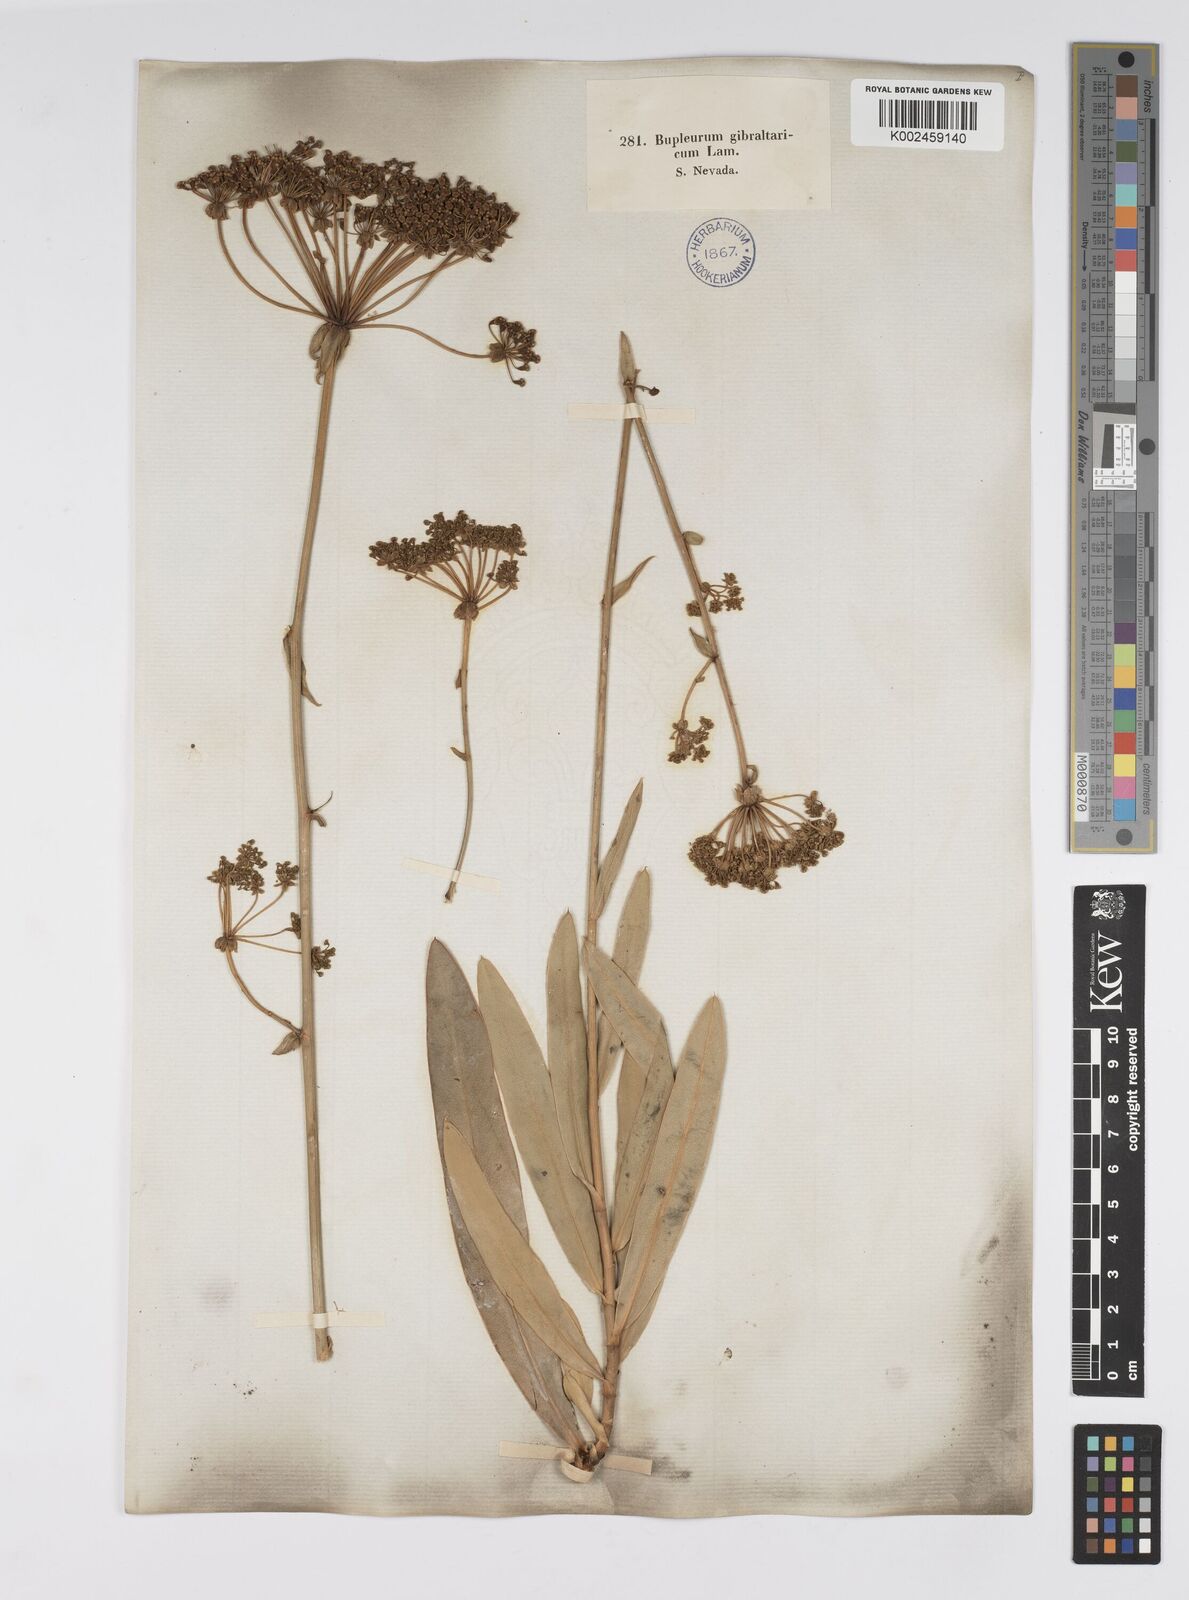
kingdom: Plantae
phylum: Tracheophyta
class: Magnoliopsida
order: Apiales
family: Apiaceae
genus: Bupleurum
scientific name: Bupleurum gibraltaricum
